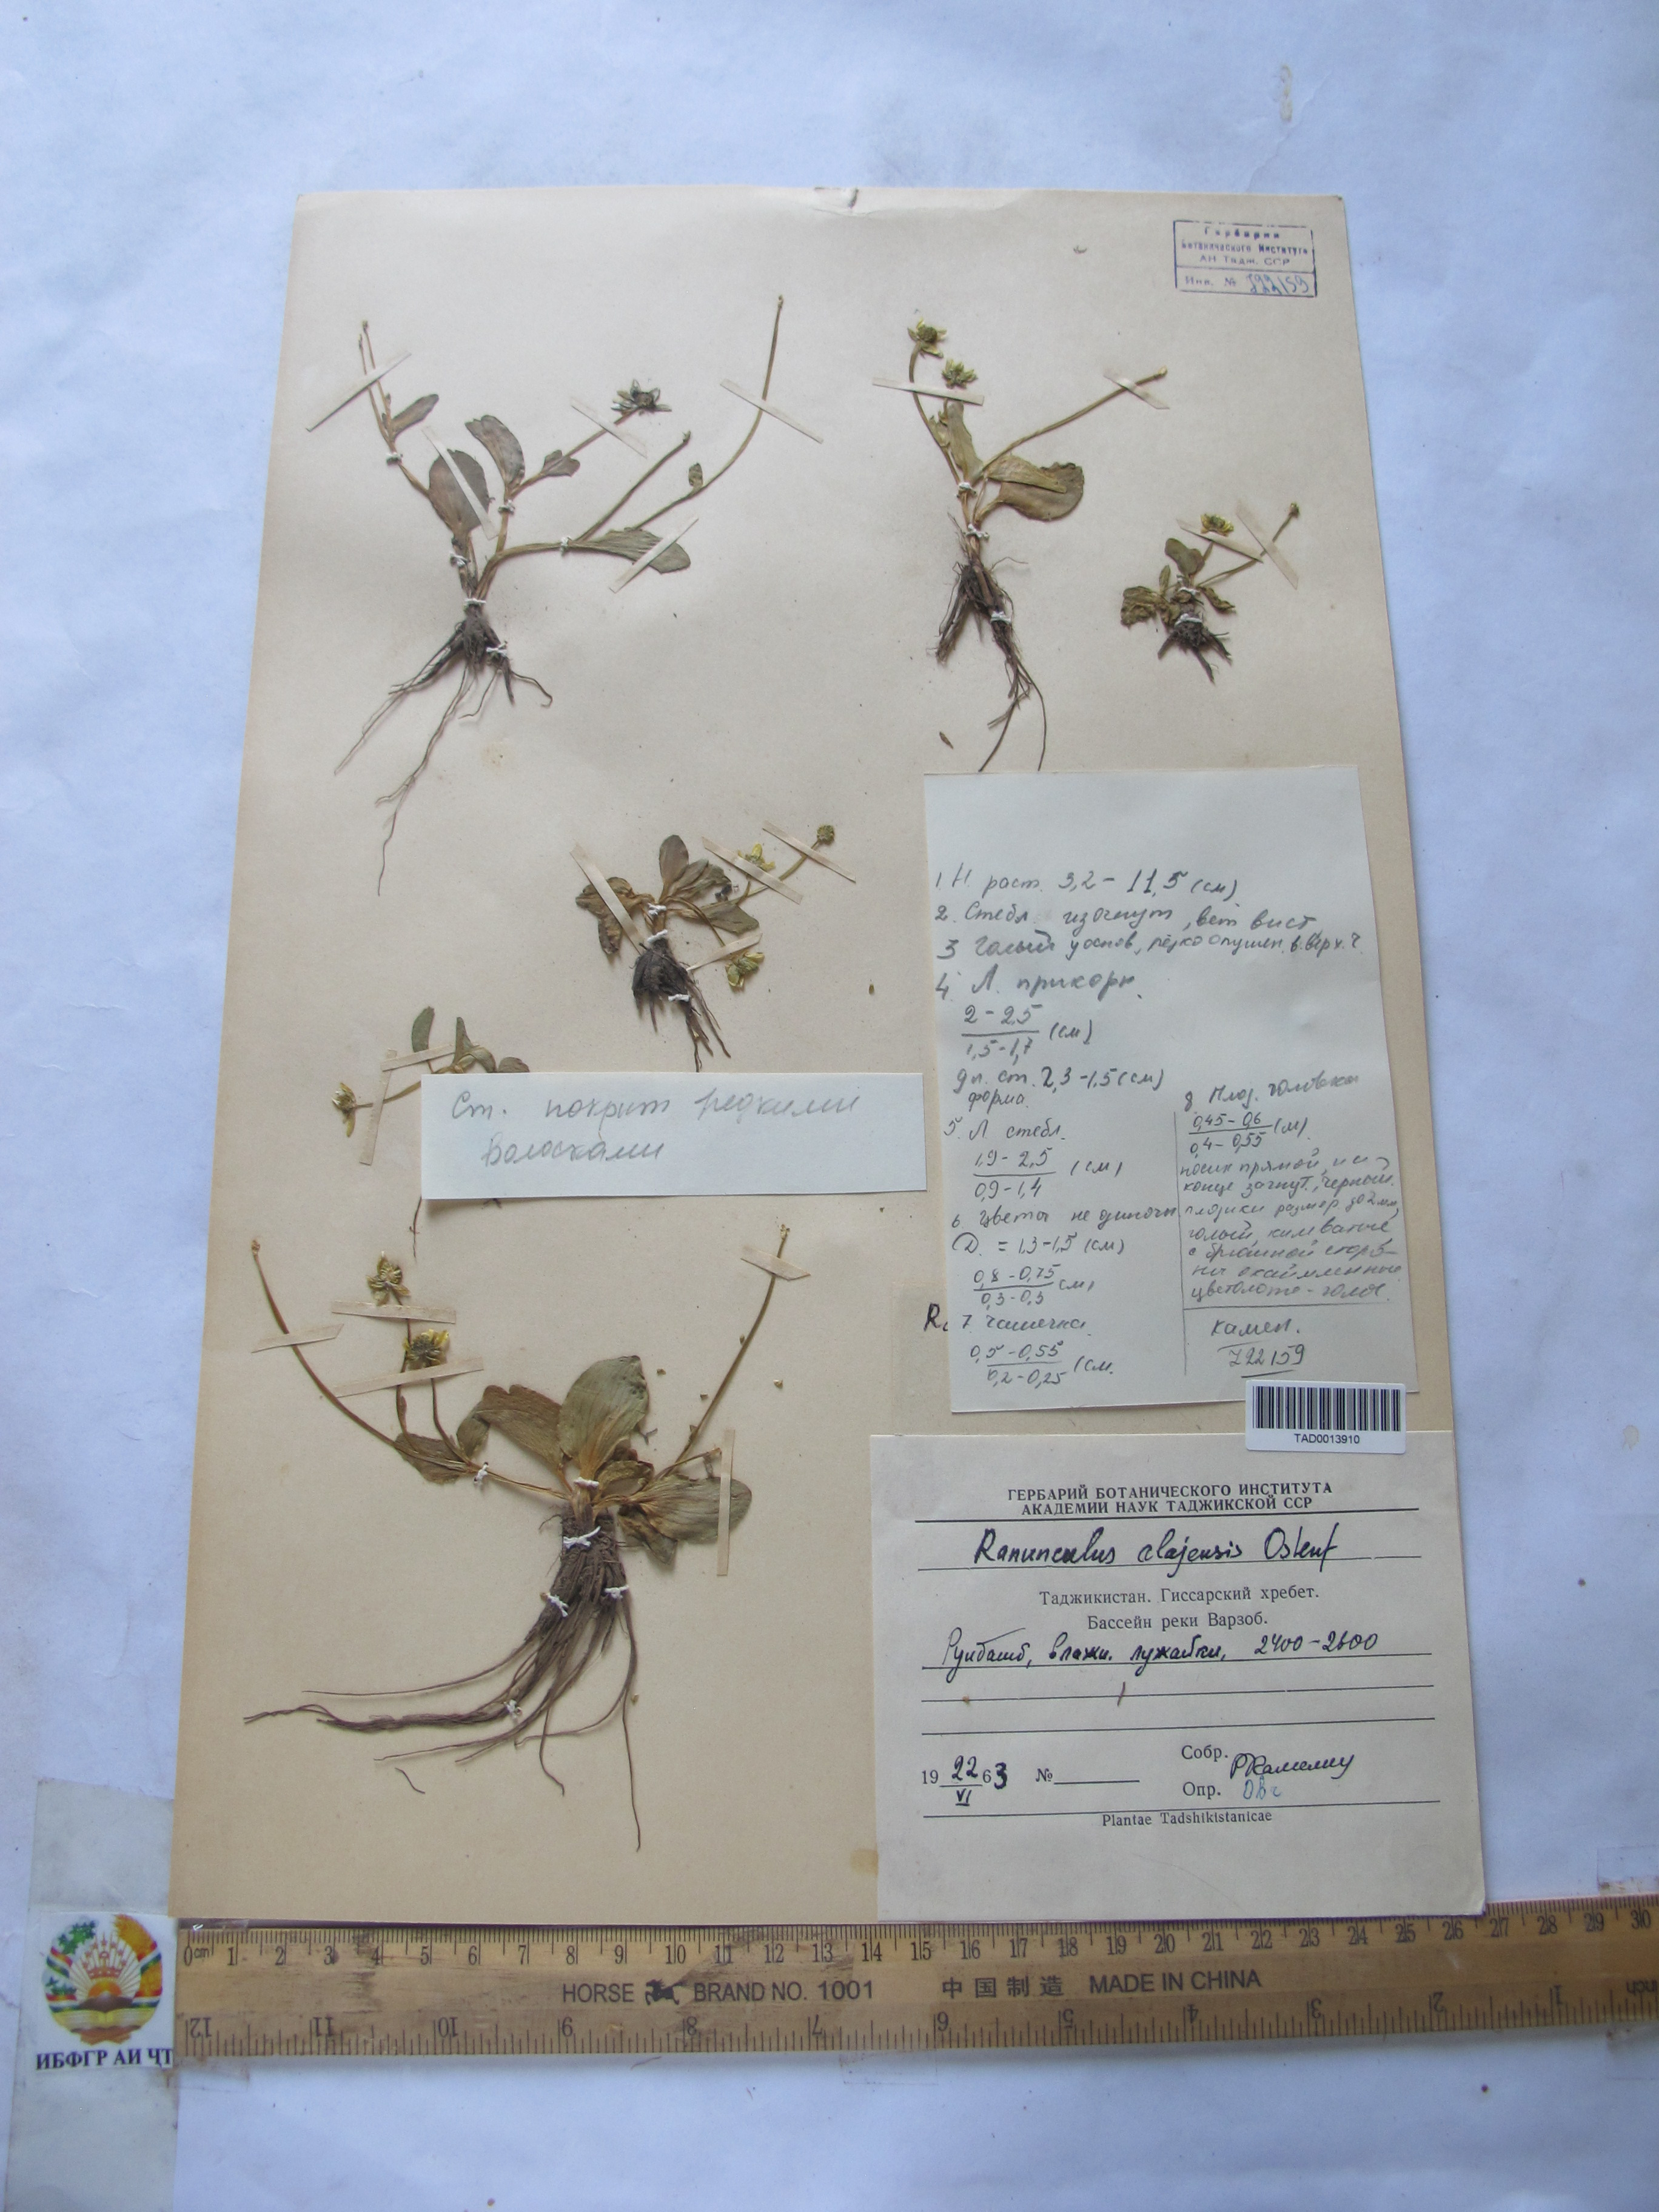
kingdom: Plantae
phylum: Tracheophyta
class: Magnoliopsida
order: Ranunculales
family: Ranunculaceae
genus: Ranunculus
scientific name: Ranunculus alaiensis
